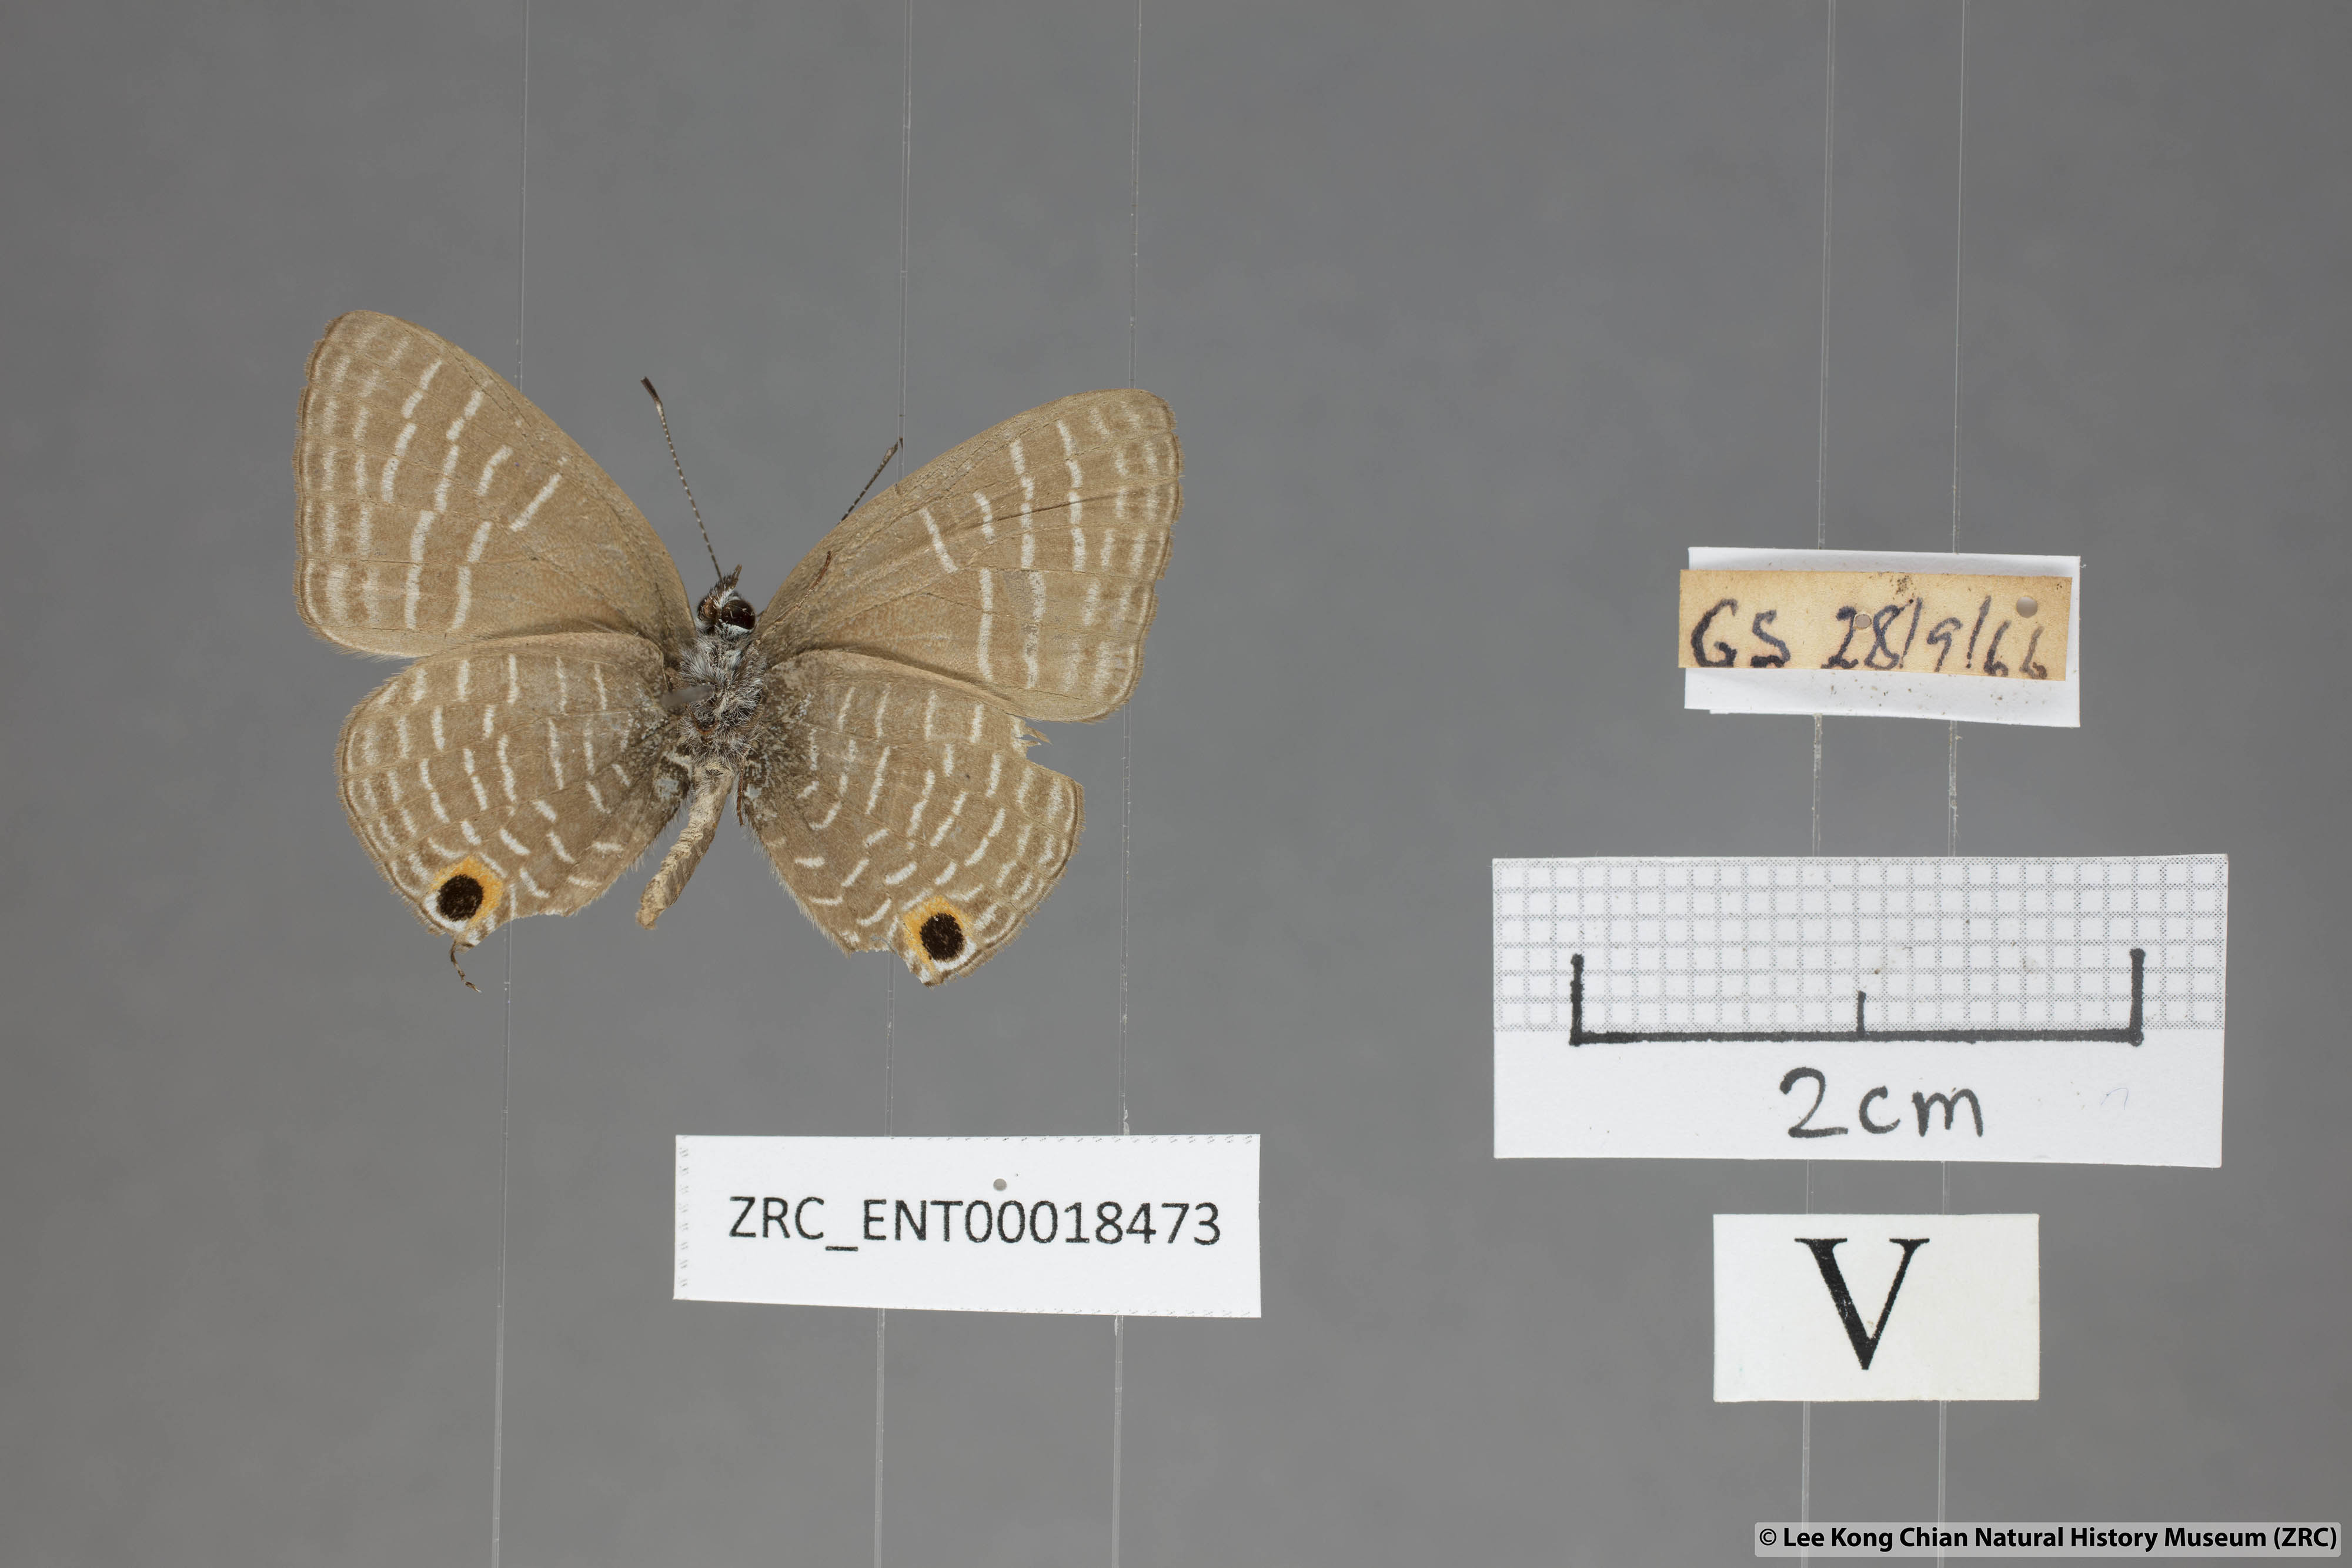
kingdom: Animalia
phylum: Arthropoda
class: Insecta
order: Lepidoptera
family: Lycaenidae
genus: Nacaduba
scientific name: Nacaduba solta
